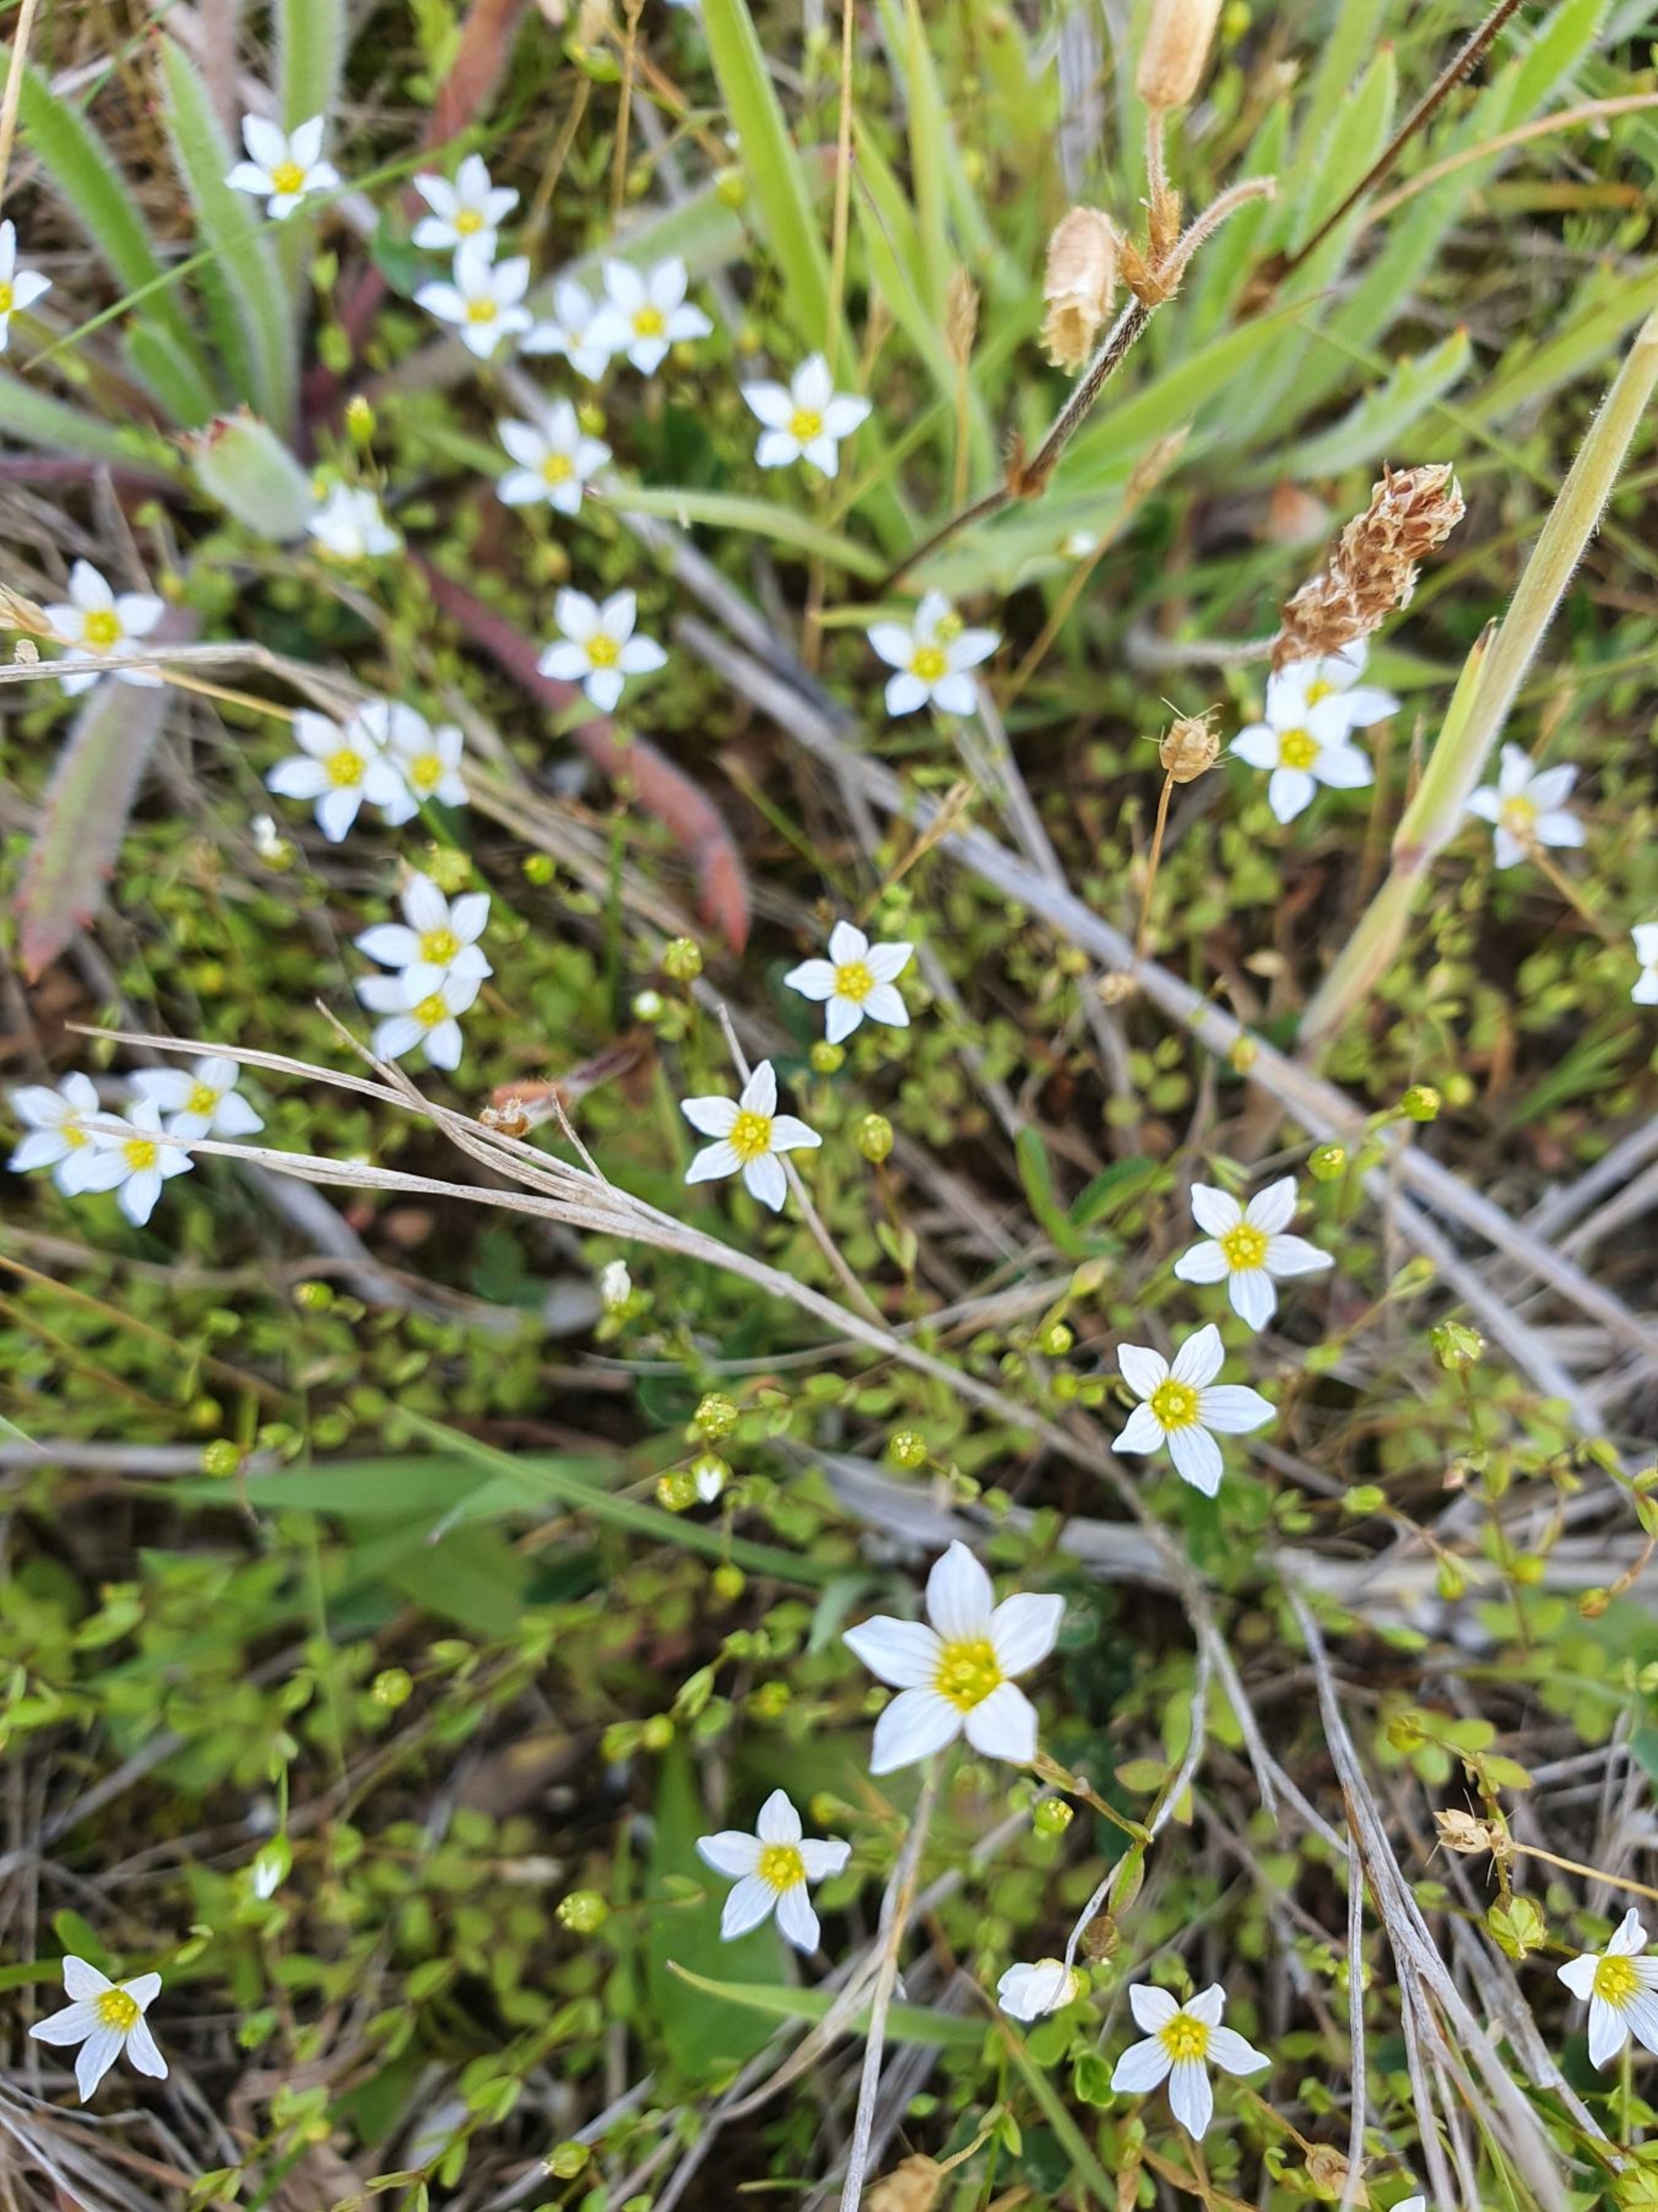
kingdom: Plantae
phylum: Tracheophyta
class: Magnoliopsida
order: Malpighiales
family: Linaceae
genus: Linum
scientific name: Linum catharticum
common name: Vild hør
